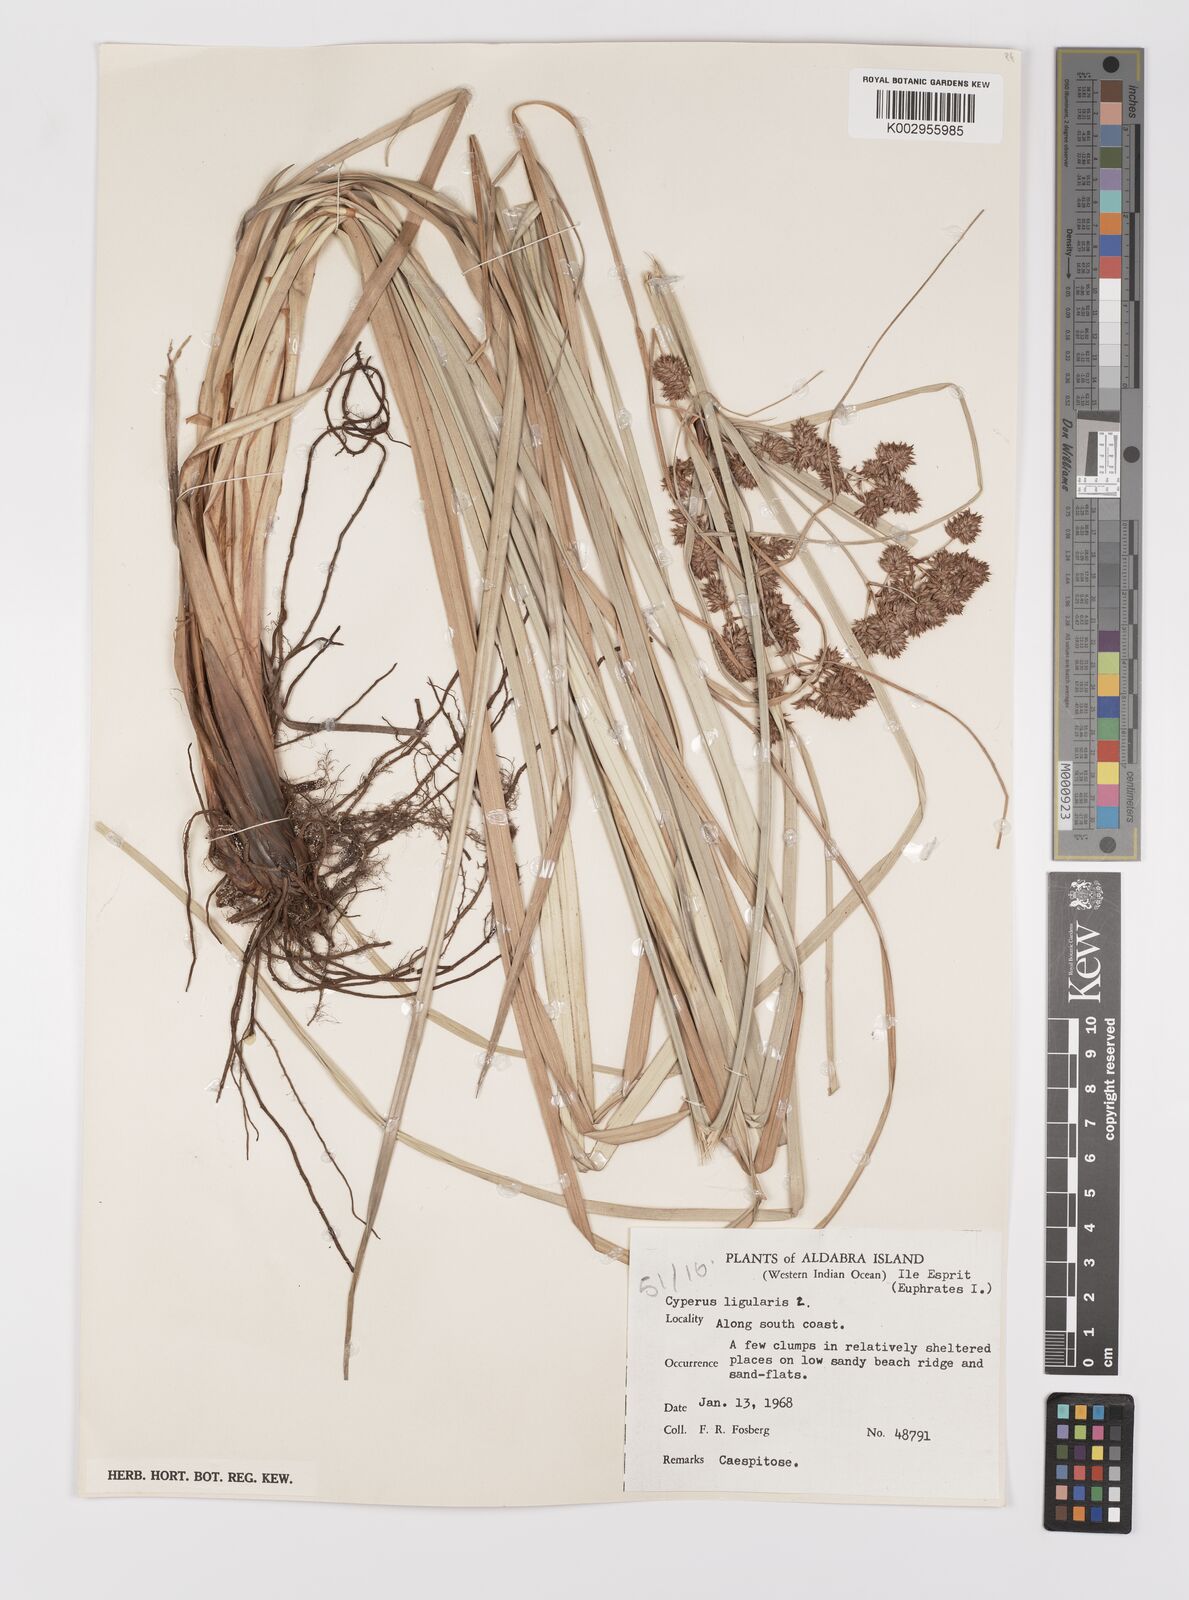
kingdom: Plantae
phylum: Tracheophyta
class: Liliopsida
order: Poales
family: Cyperaceae
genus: Cyperus
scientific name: Cyperus ligularis
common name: Swamp flat sedge
